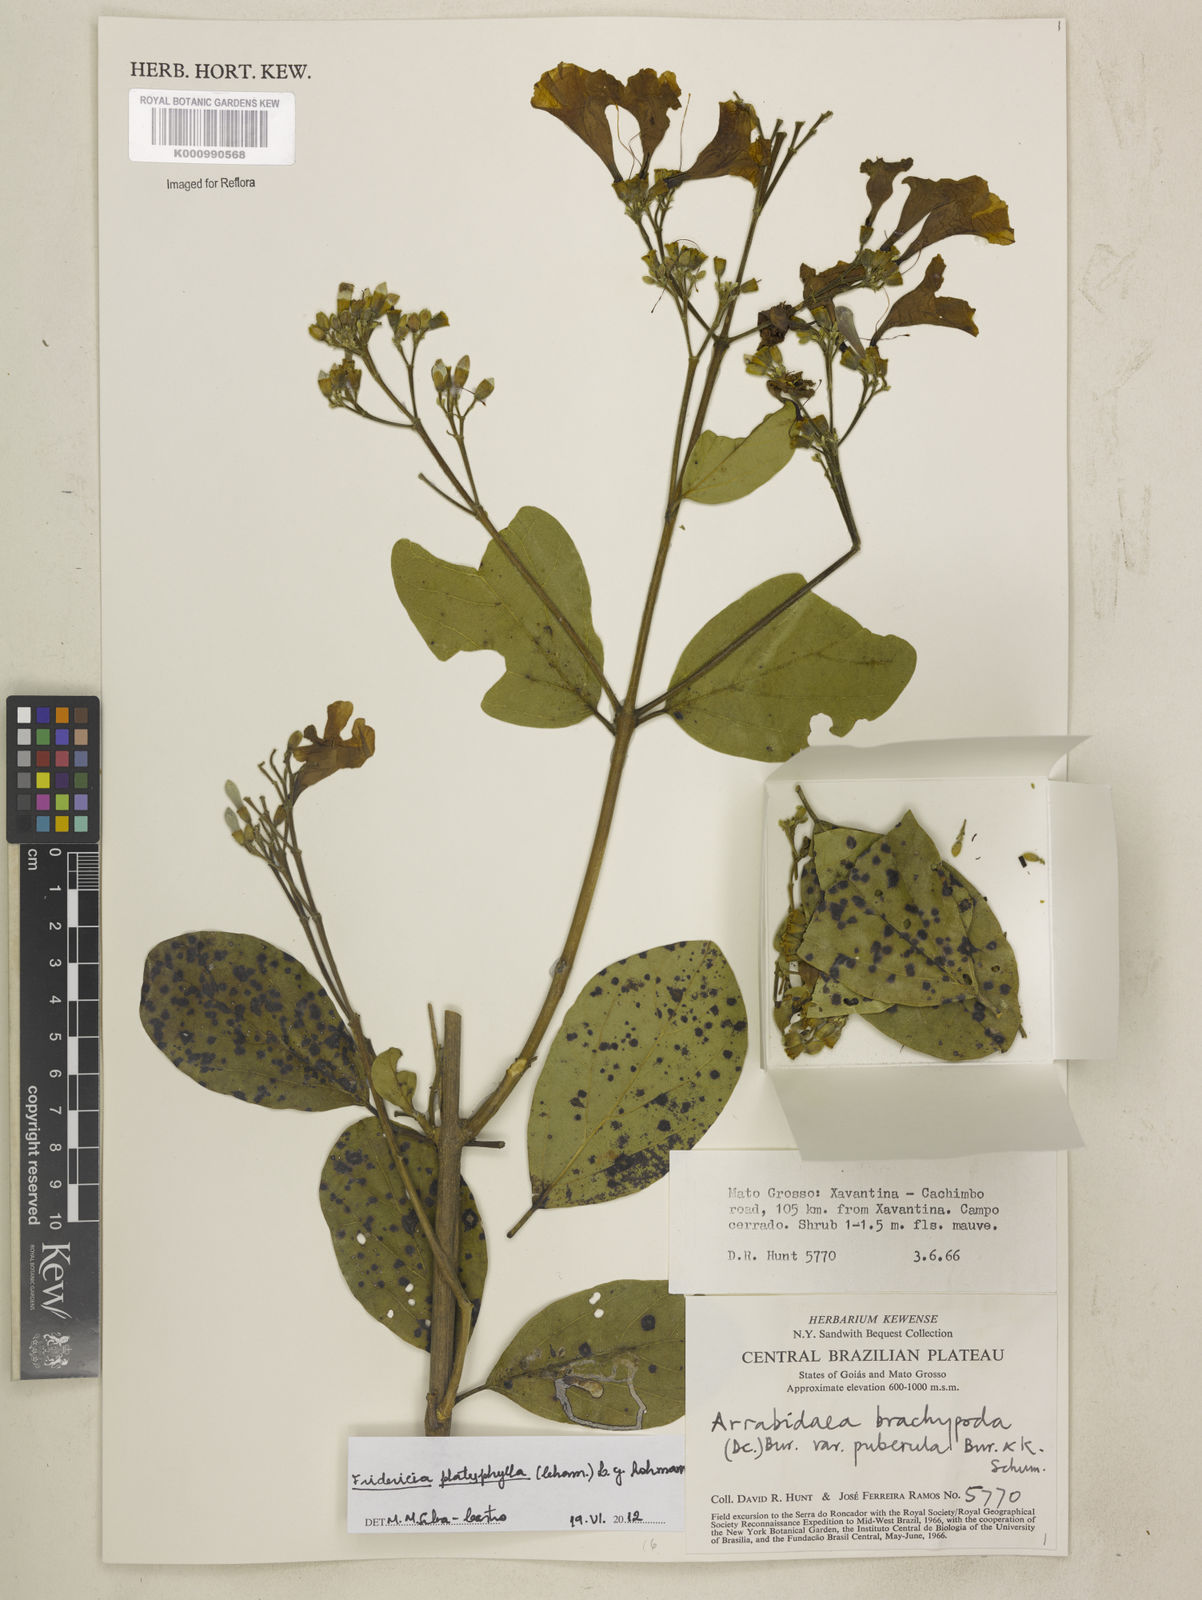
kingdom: Plantae
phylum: Tracheophyta
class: Magnoliopsida
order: Lamiales
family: Bignoniaceae
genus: Fridericia
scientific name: Fridericia platyphylla
